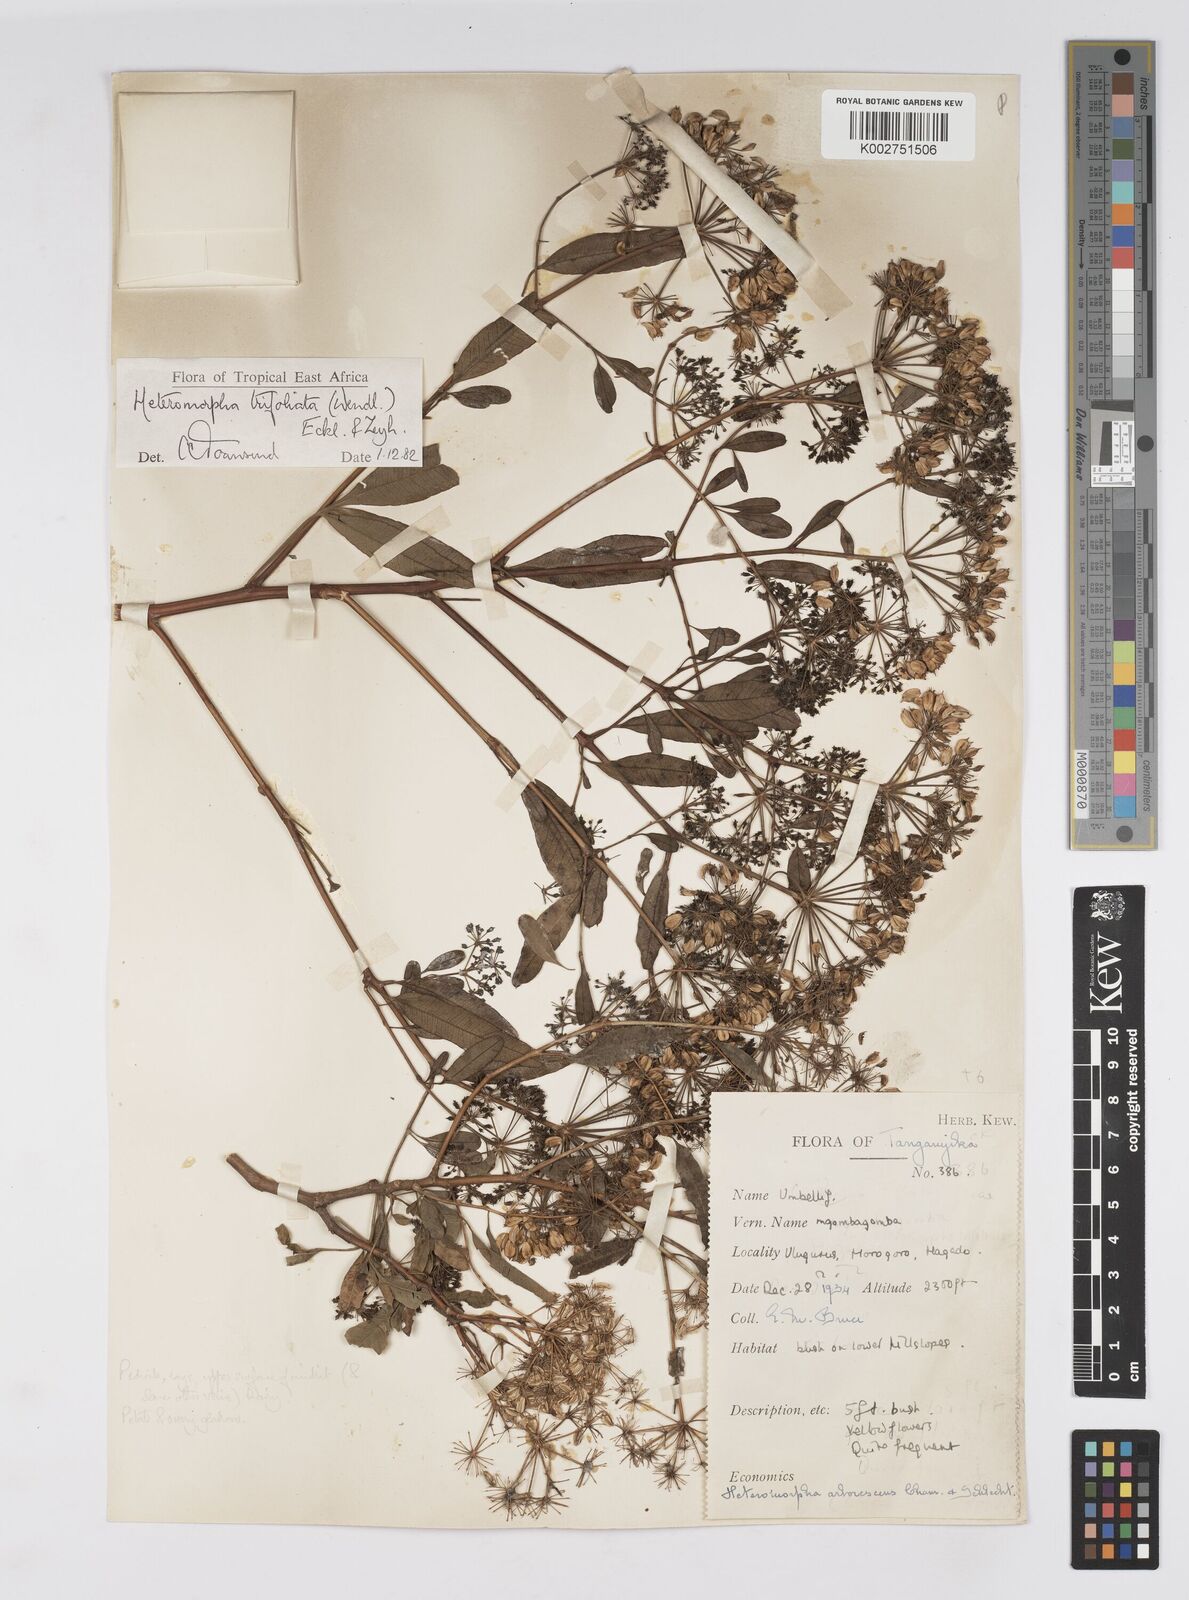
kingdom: Plantae
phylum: Tracheophyta
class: Magnoliopsida
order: Apiales
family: Apiaceae
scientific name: Apiaceae
